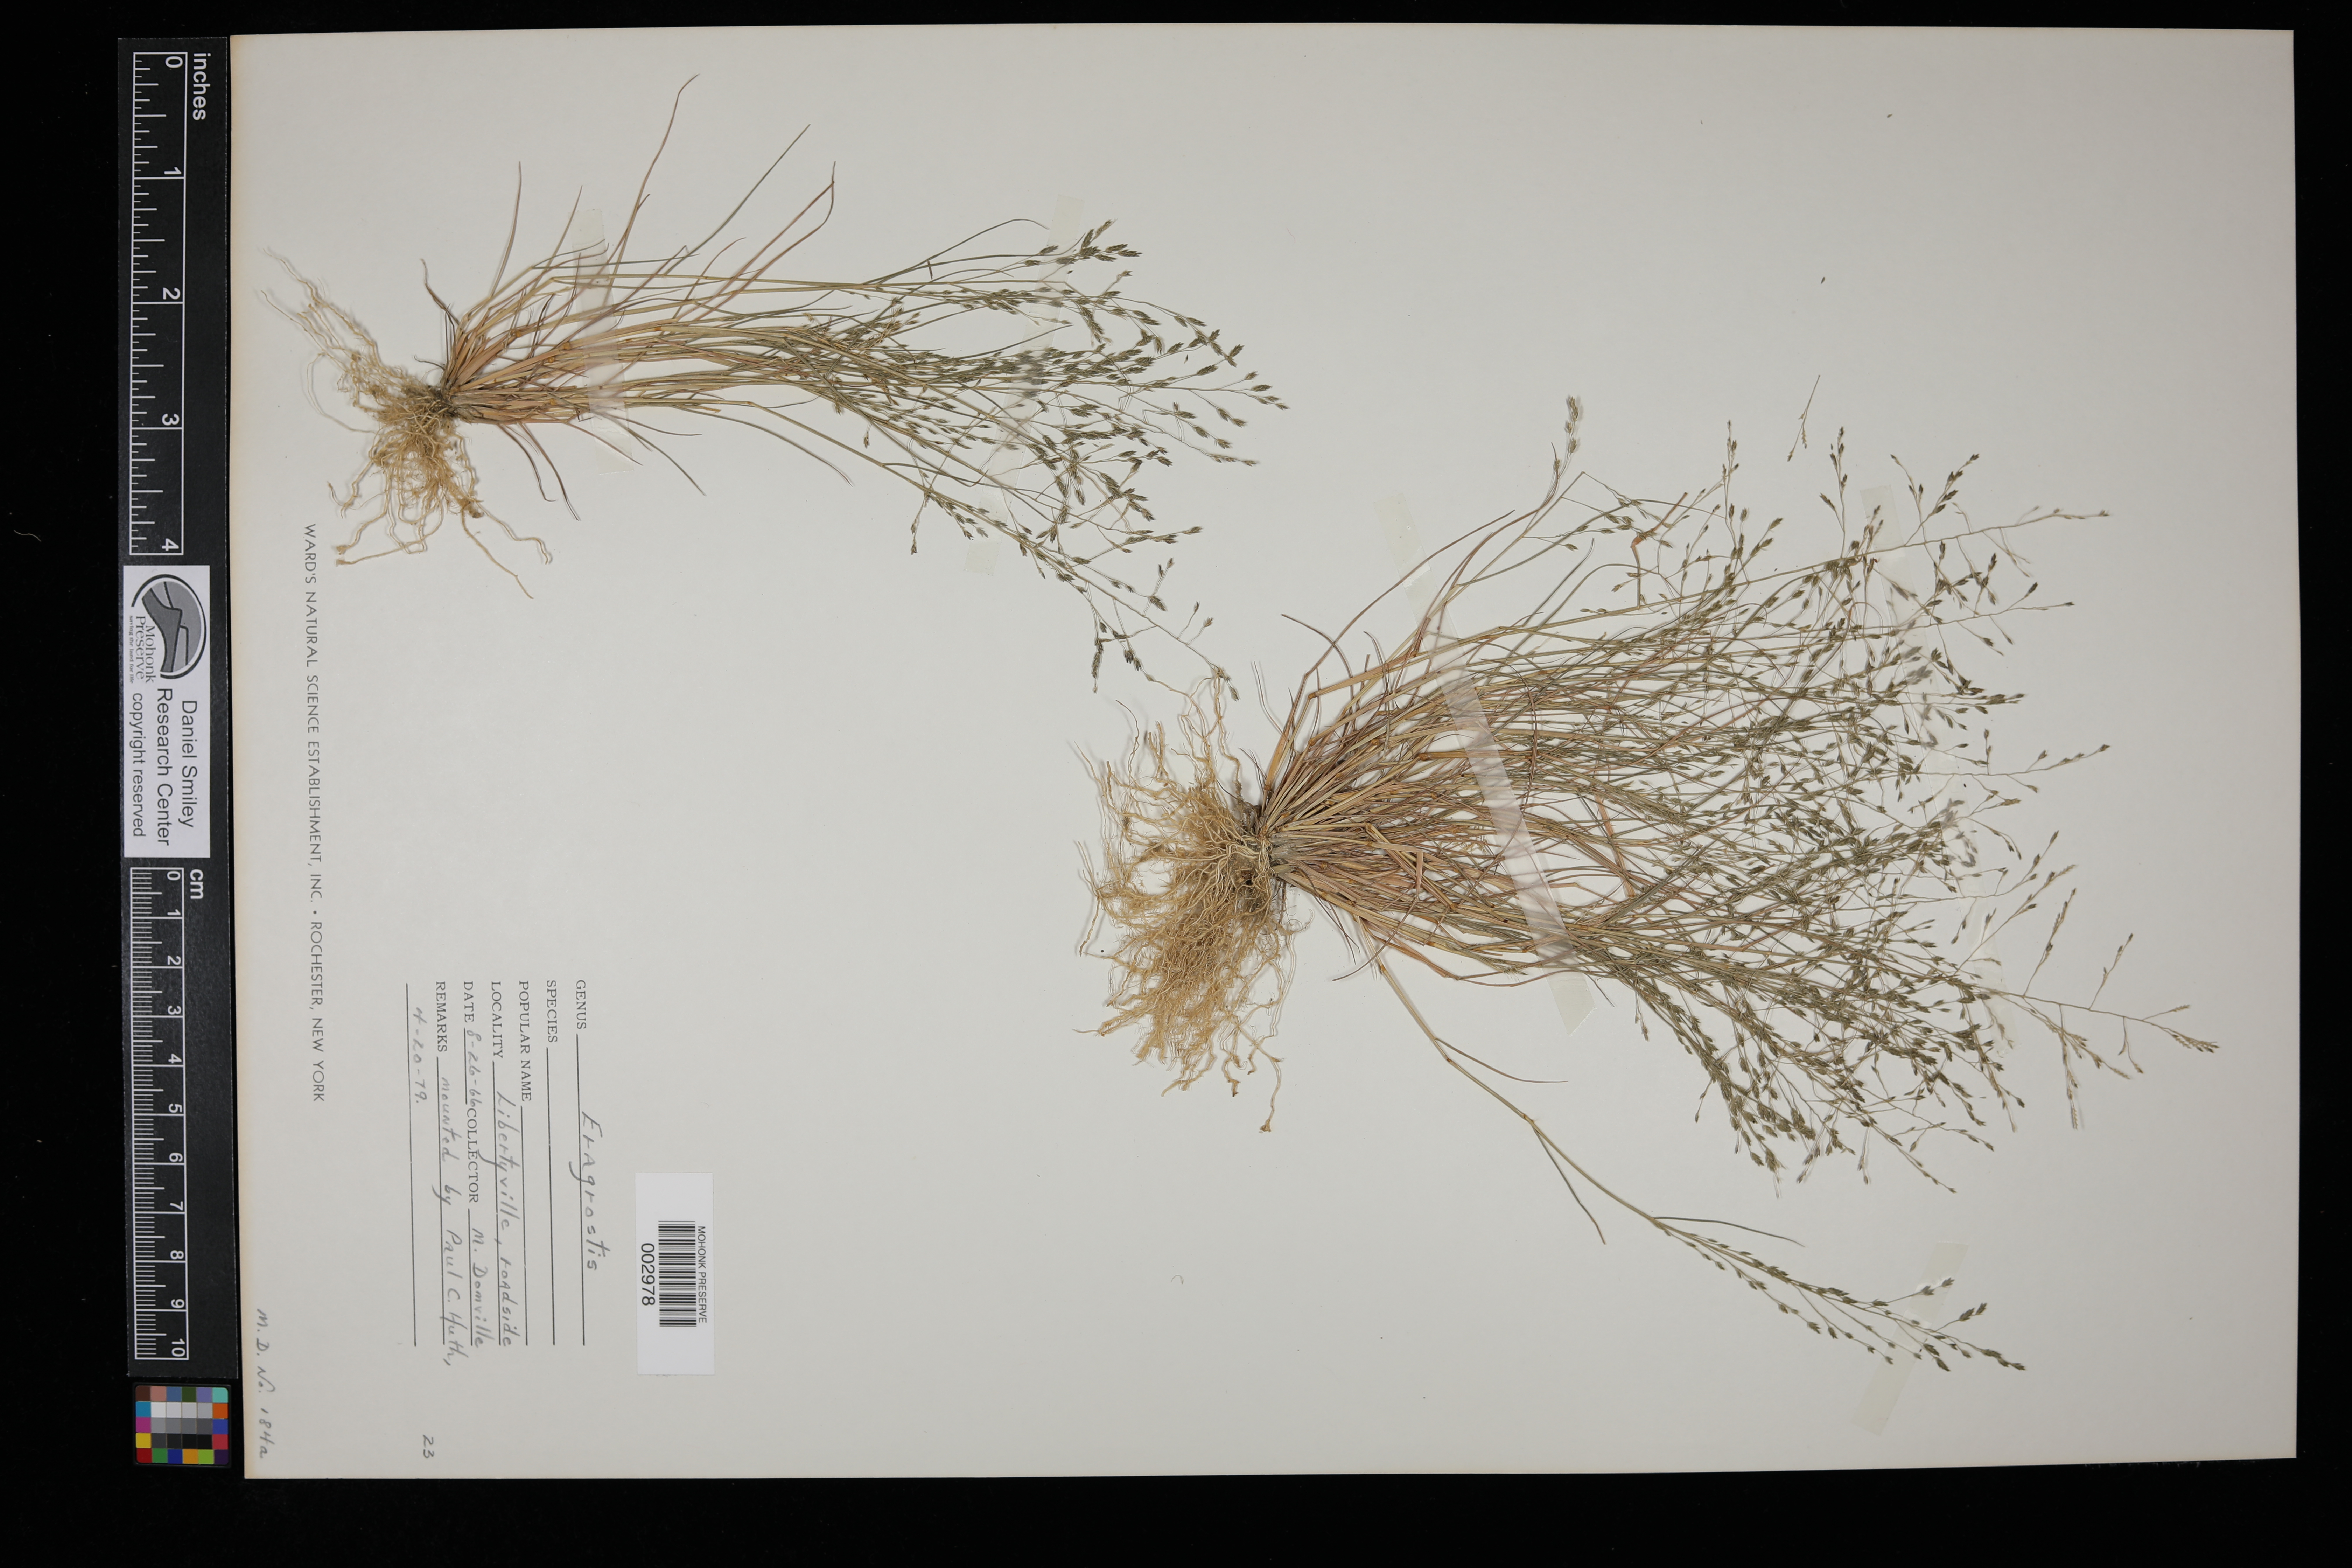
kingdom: Plantae
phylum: Tracheophyta
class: Liliopsida
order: Poales
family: Poaceae
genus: Eragrostis
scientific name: Eragrostis
